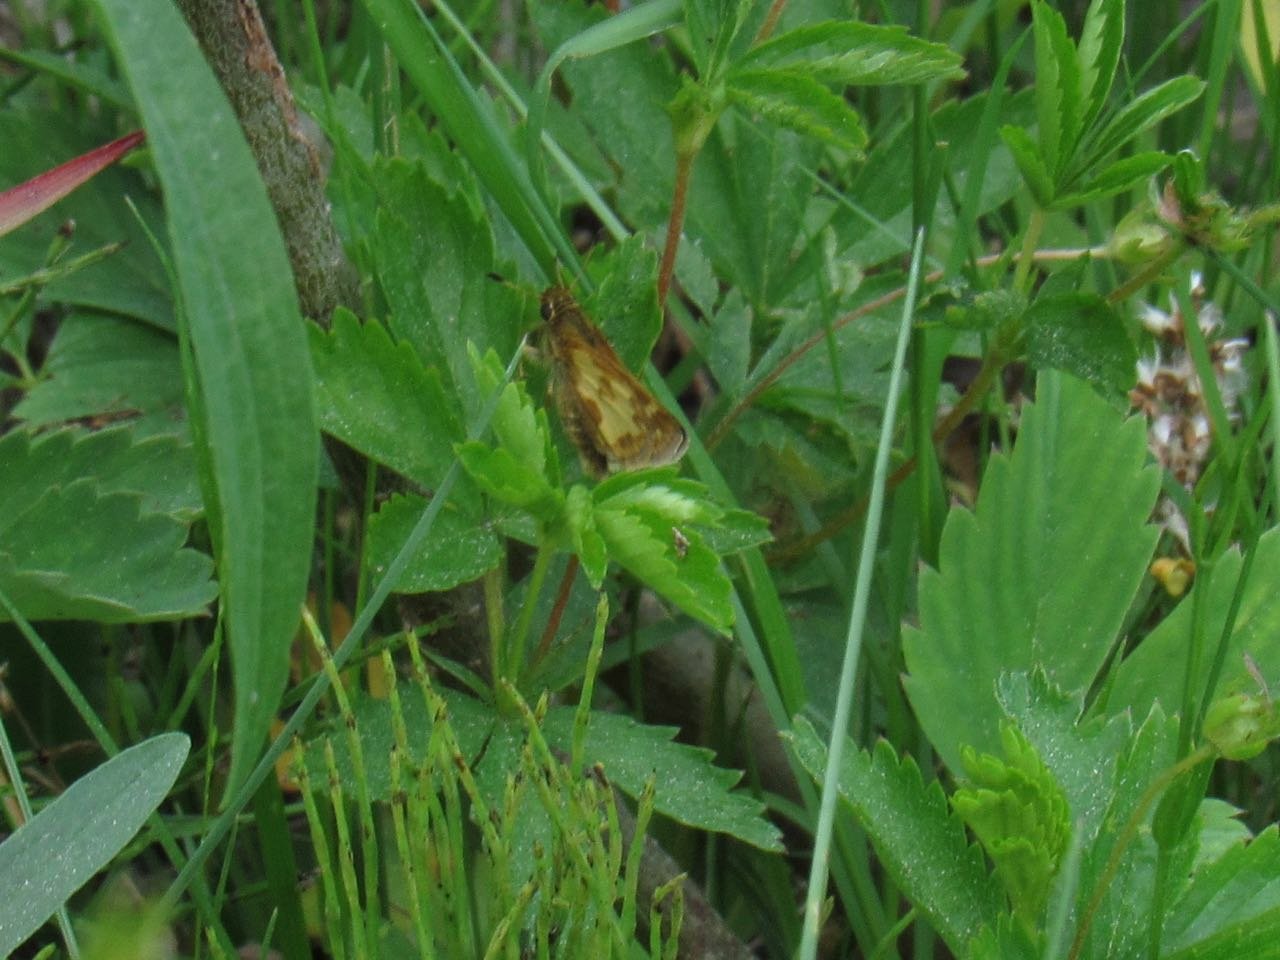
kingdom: Animalia
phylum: Arthropoda
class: Insecta
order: Lepidoptera
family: Hesperiidae
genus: Polites
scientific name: Polites coras
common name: Peck's Skipper
